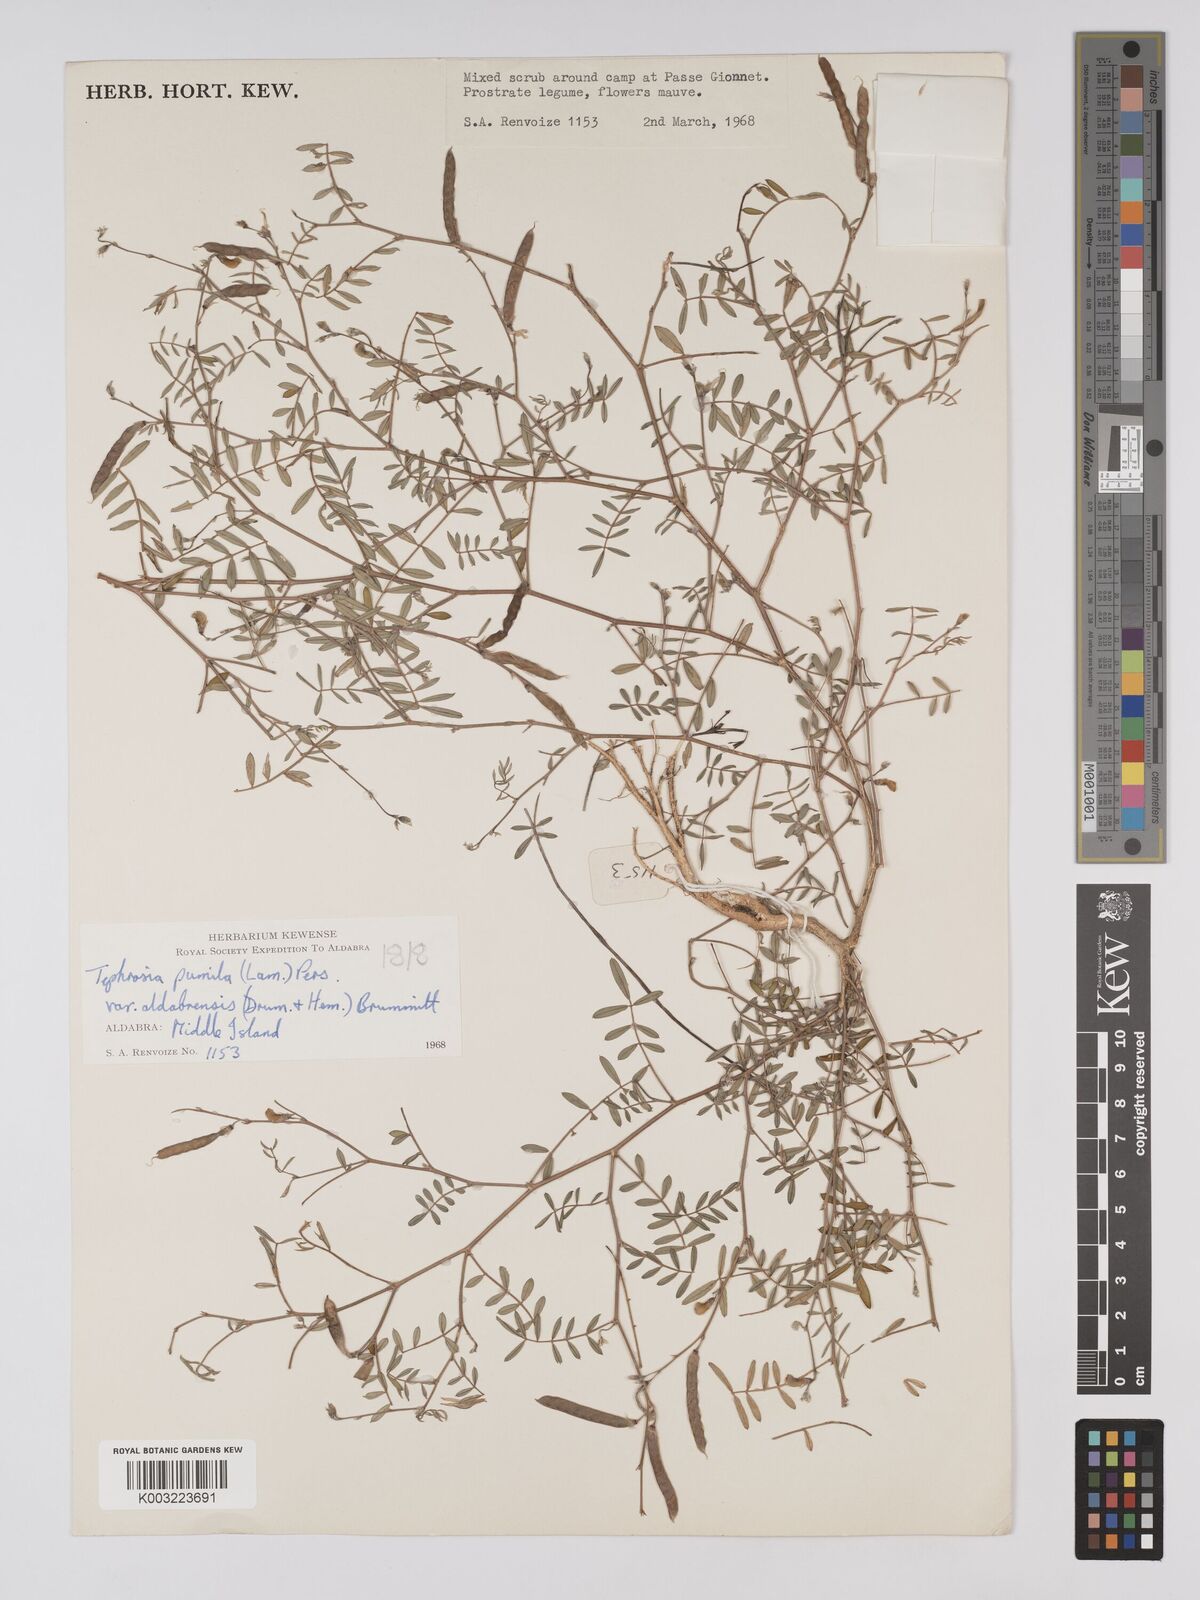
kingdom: Plantae
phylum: Tracheophyta
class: Magnoliopsida
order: Fabales
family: Fabaceae
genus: Tephrosia
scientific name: Tephrosia pumila
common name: Indigo sauvage
